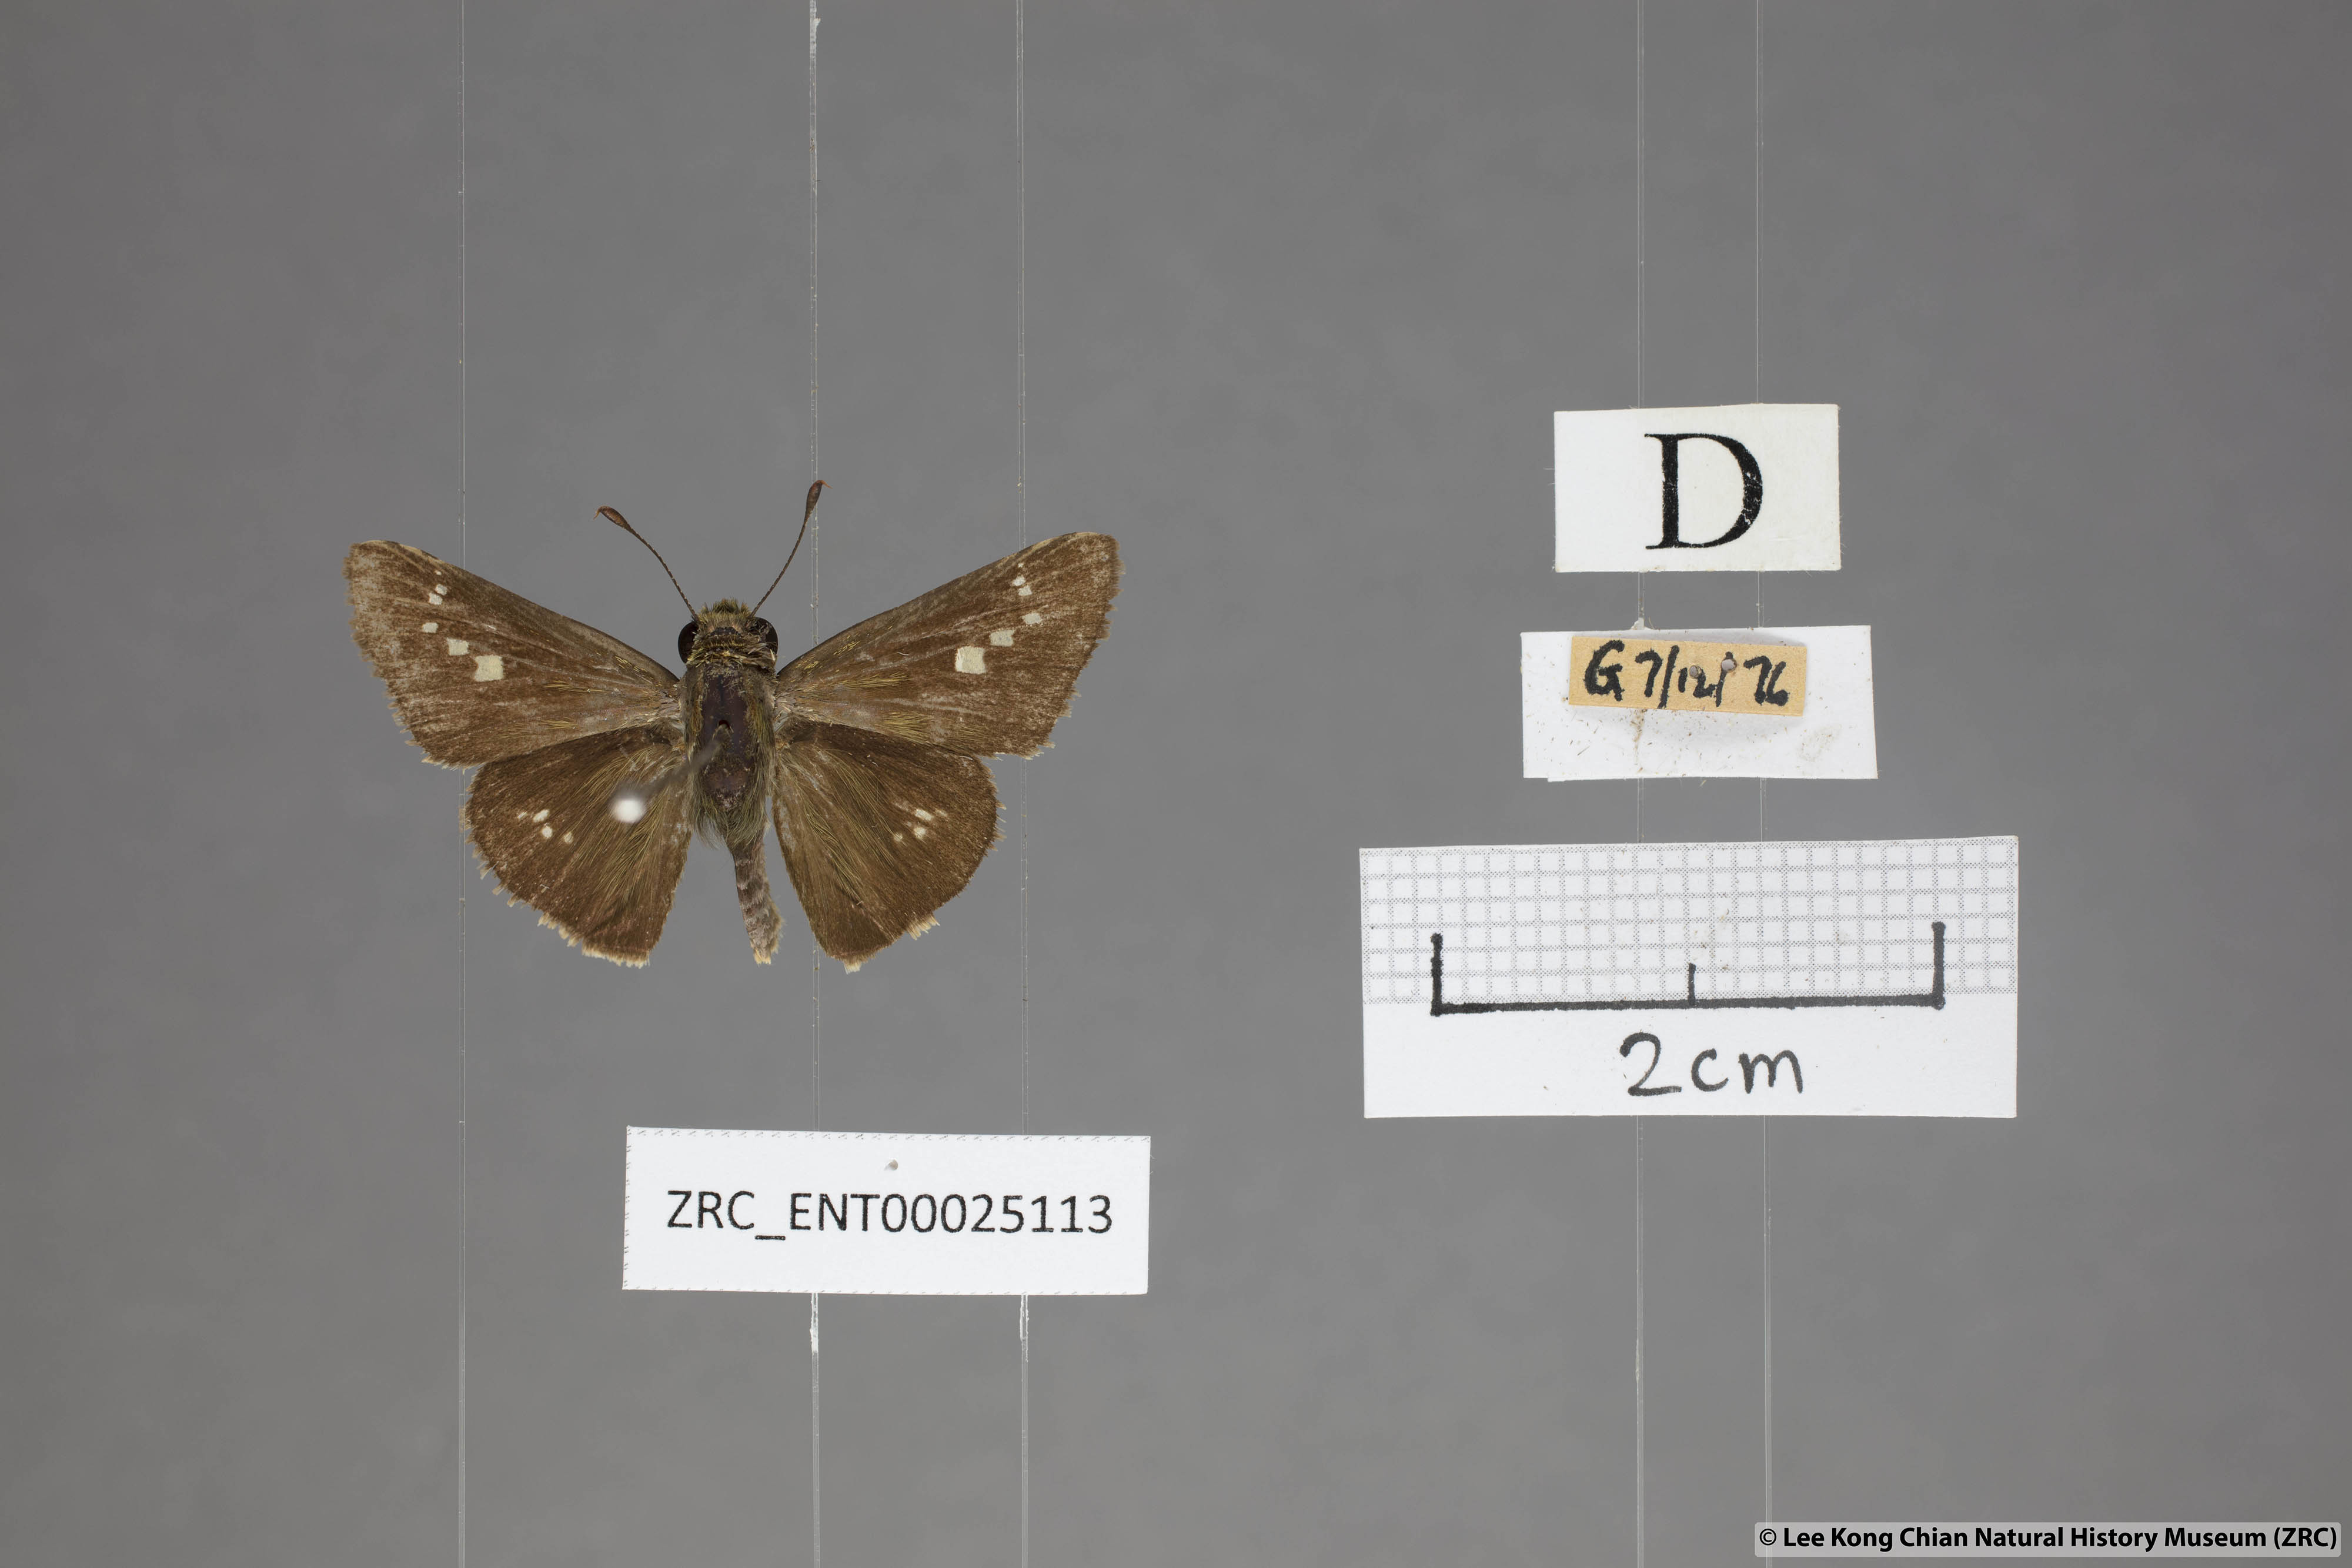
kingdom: Animalia
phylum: Arthropoda
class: Insecta
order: Lepidoptera
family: Hesperiidae
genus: Parnara
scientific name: Parnara apostata
